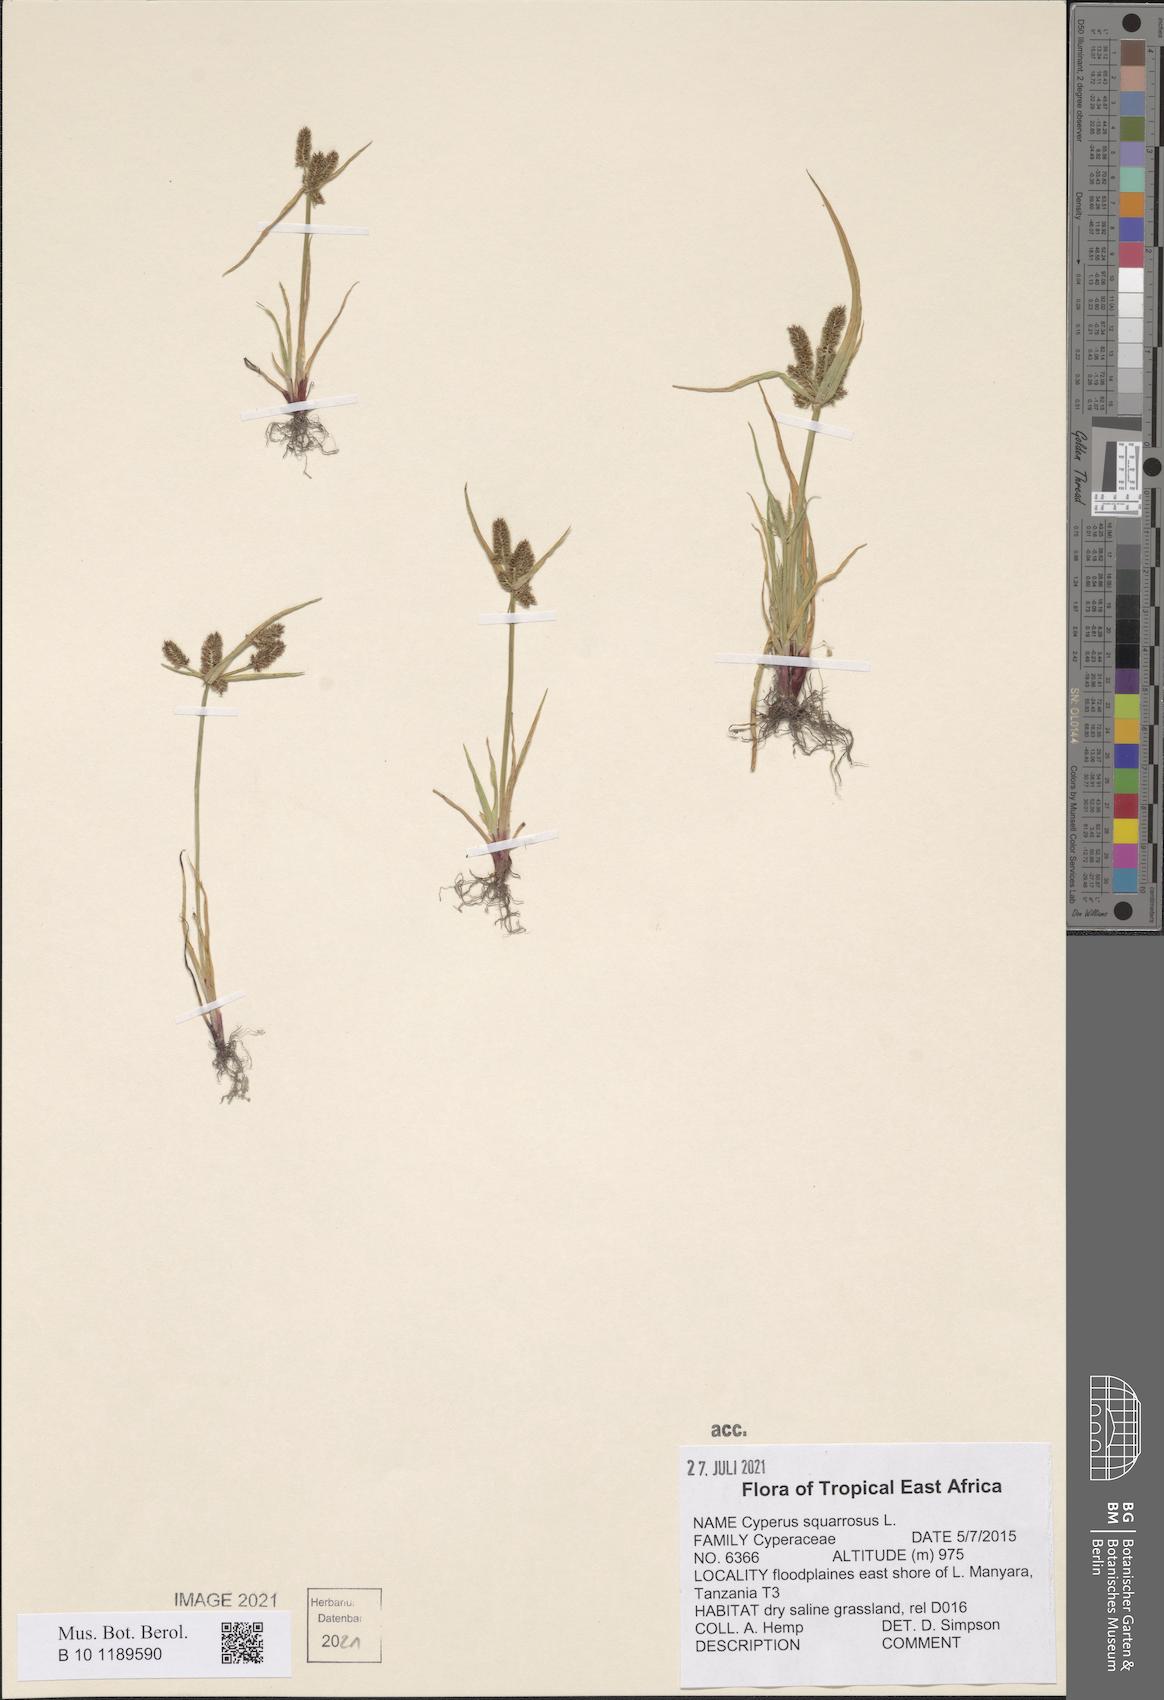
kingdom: Plantae
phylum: Tracheophyta
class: Liliopsida
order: Poales
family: Cyperaceae
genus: Cyperus
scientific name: Cyperus squarrosus
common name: Awned cyperus
